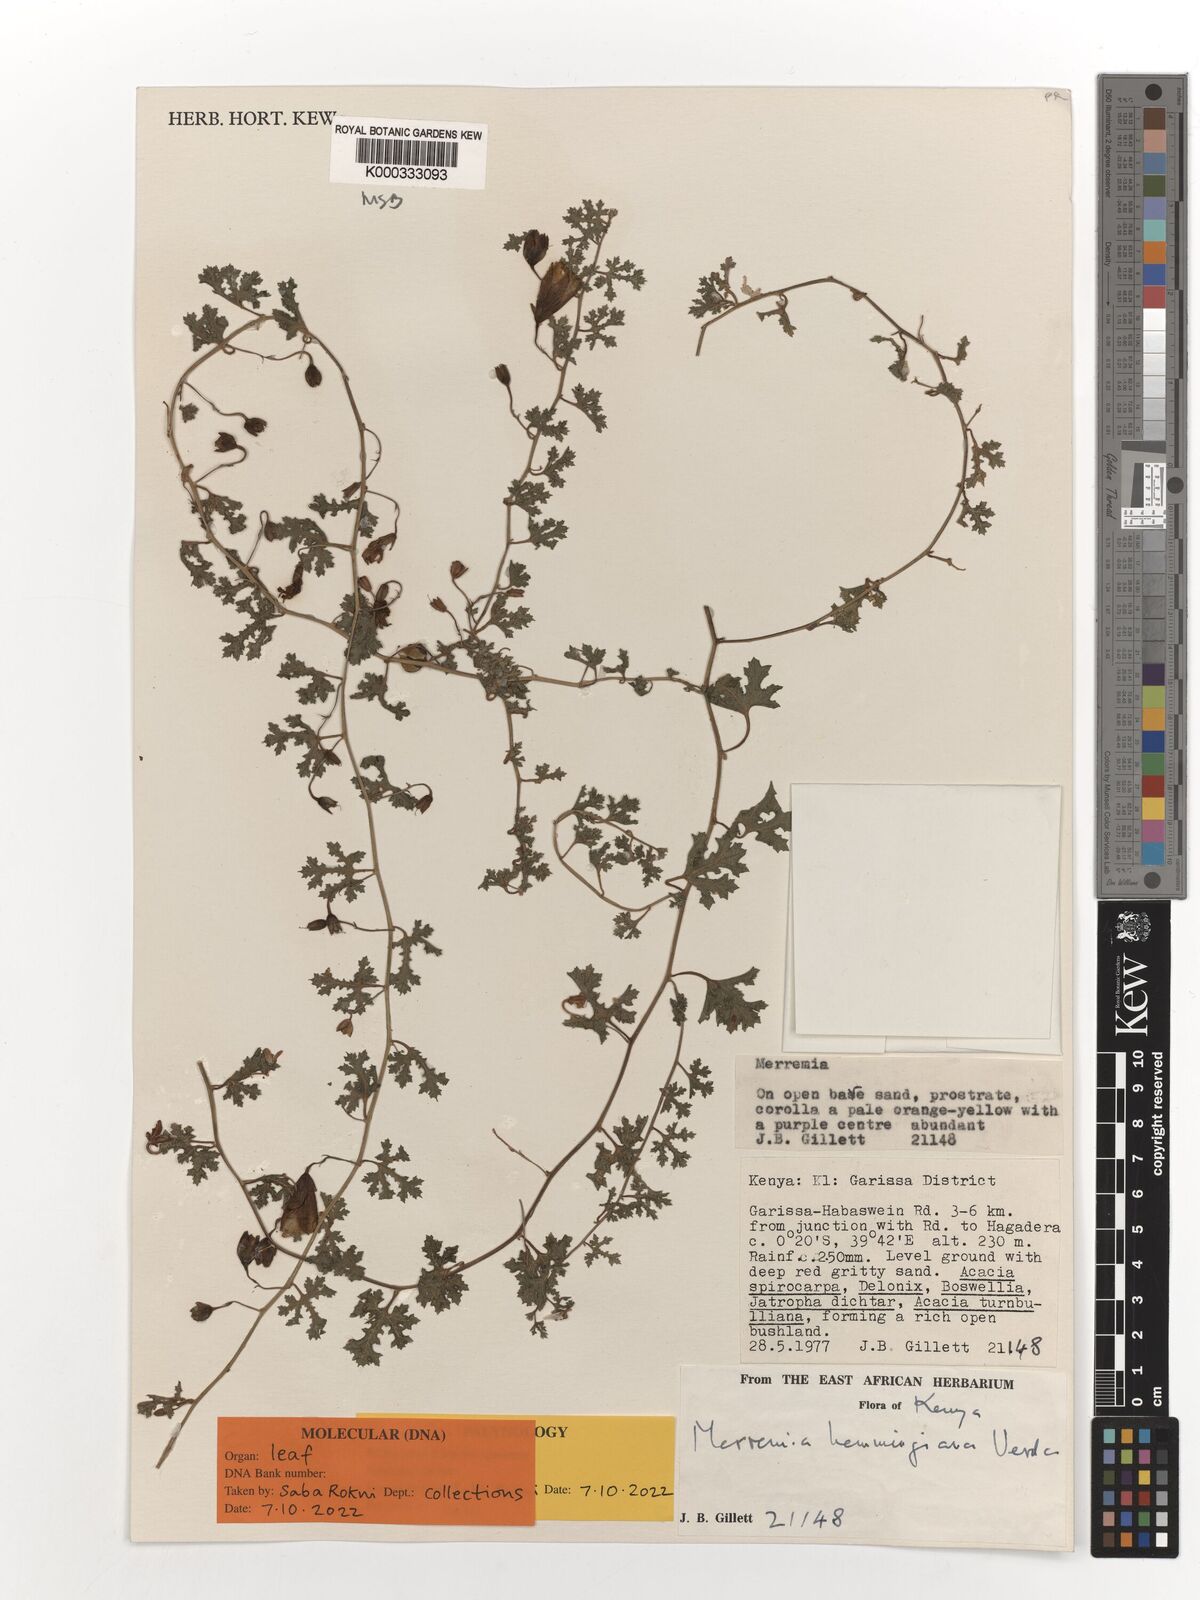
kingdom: Plantae
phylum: Tracheophyta
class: Magnoliopsida
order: Solanales
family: Convolvulaceae
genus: Merremia
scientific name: Merremia hemmingiana
